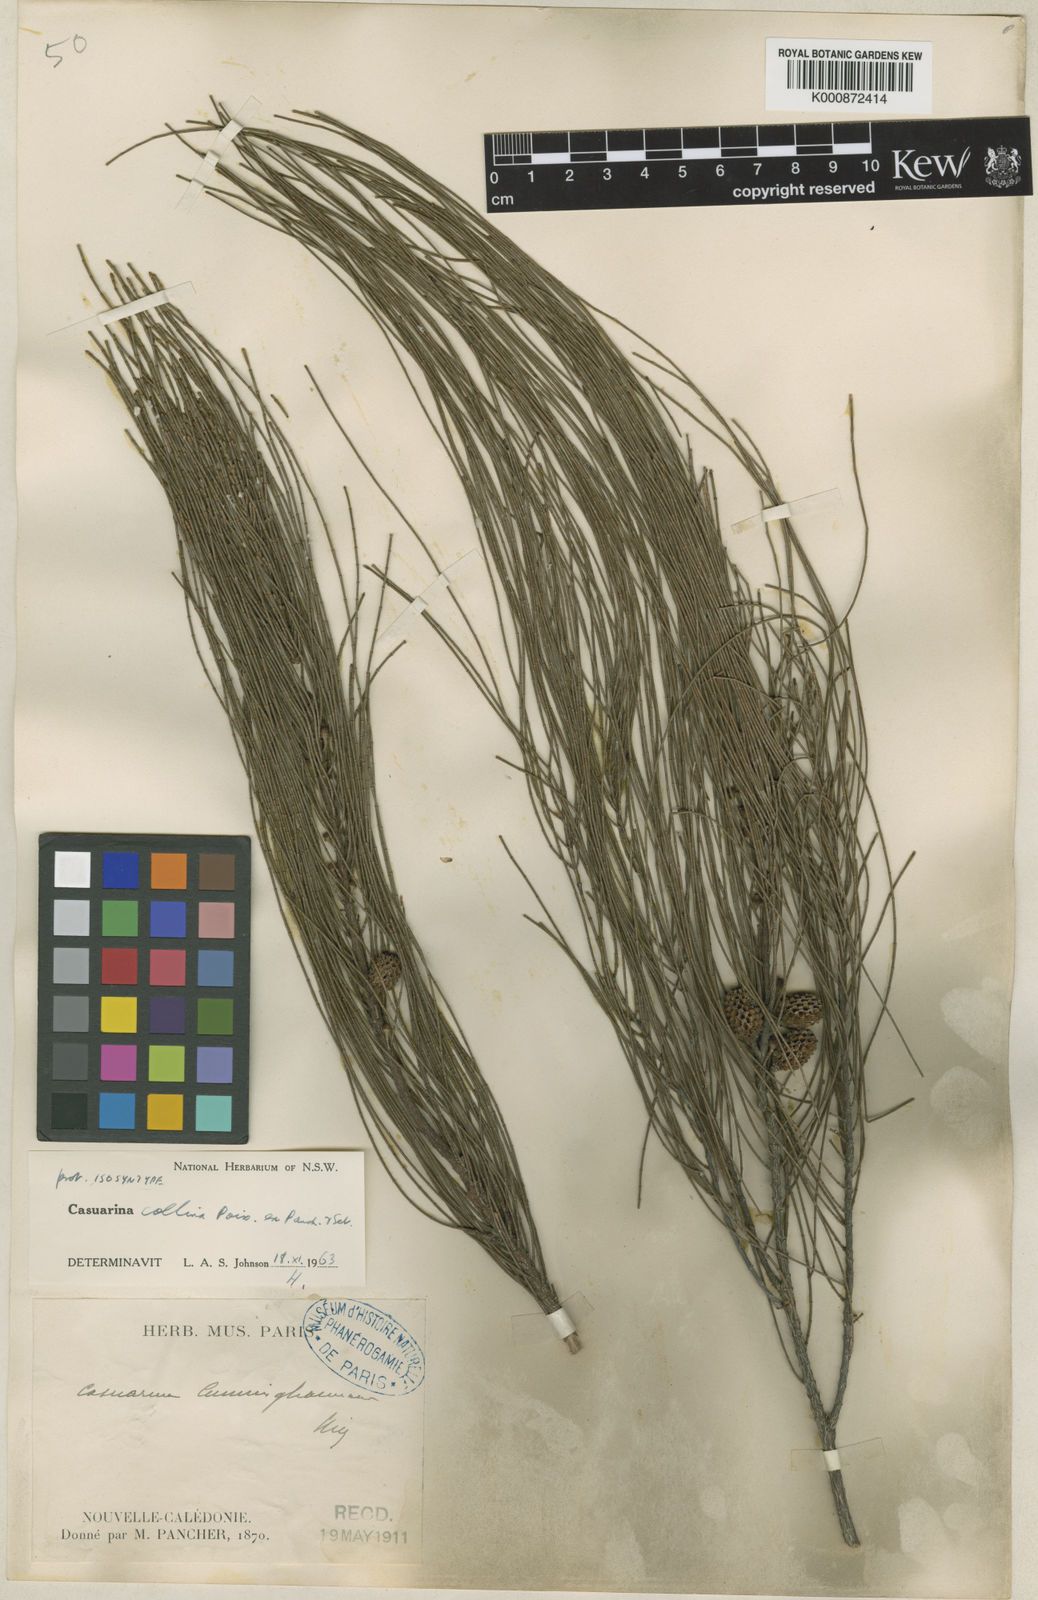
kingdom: Plantae
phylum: Tracheophyta
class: Magnoliopsida
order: Fagales
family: Casuarinaceae
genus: Casuarina
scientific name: Casuarina collina
